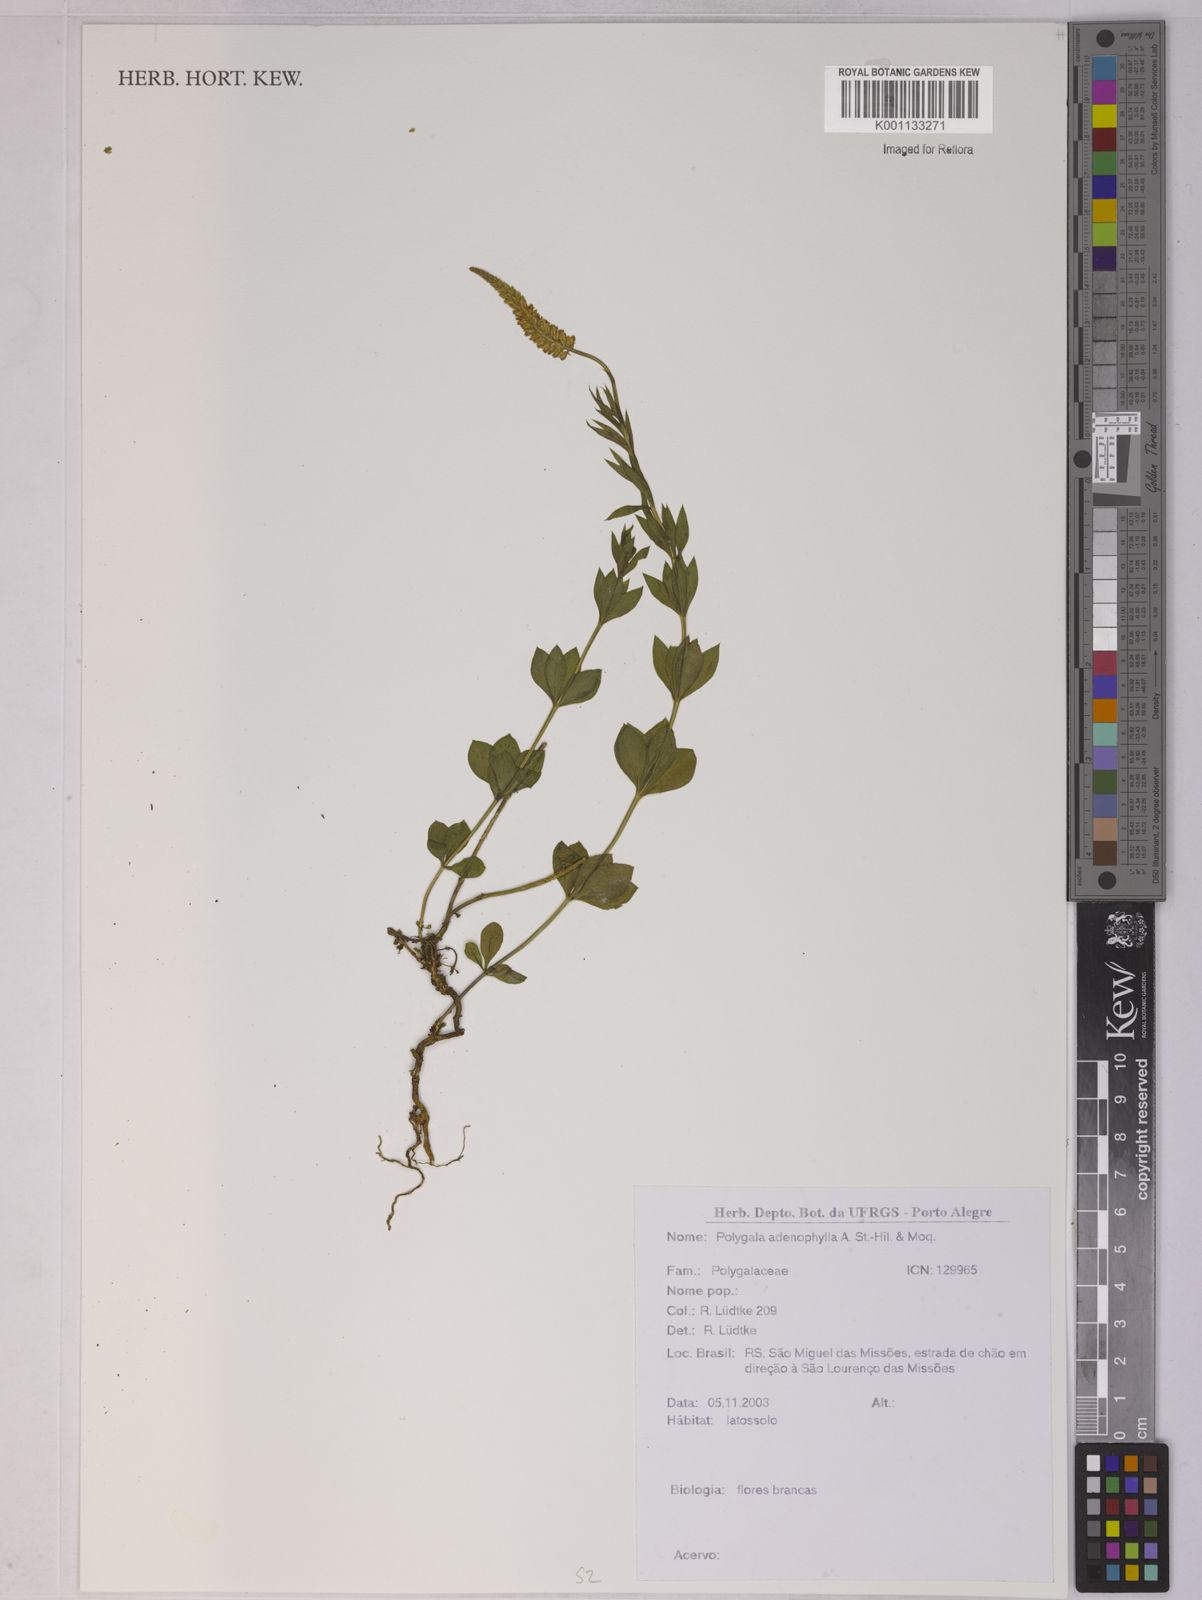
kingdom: Plantae
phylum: Tracheophyta
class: Magnoliopsida
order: Fabales
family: Polygalaceae
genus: Polygala
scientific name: Polygala adenophylla
